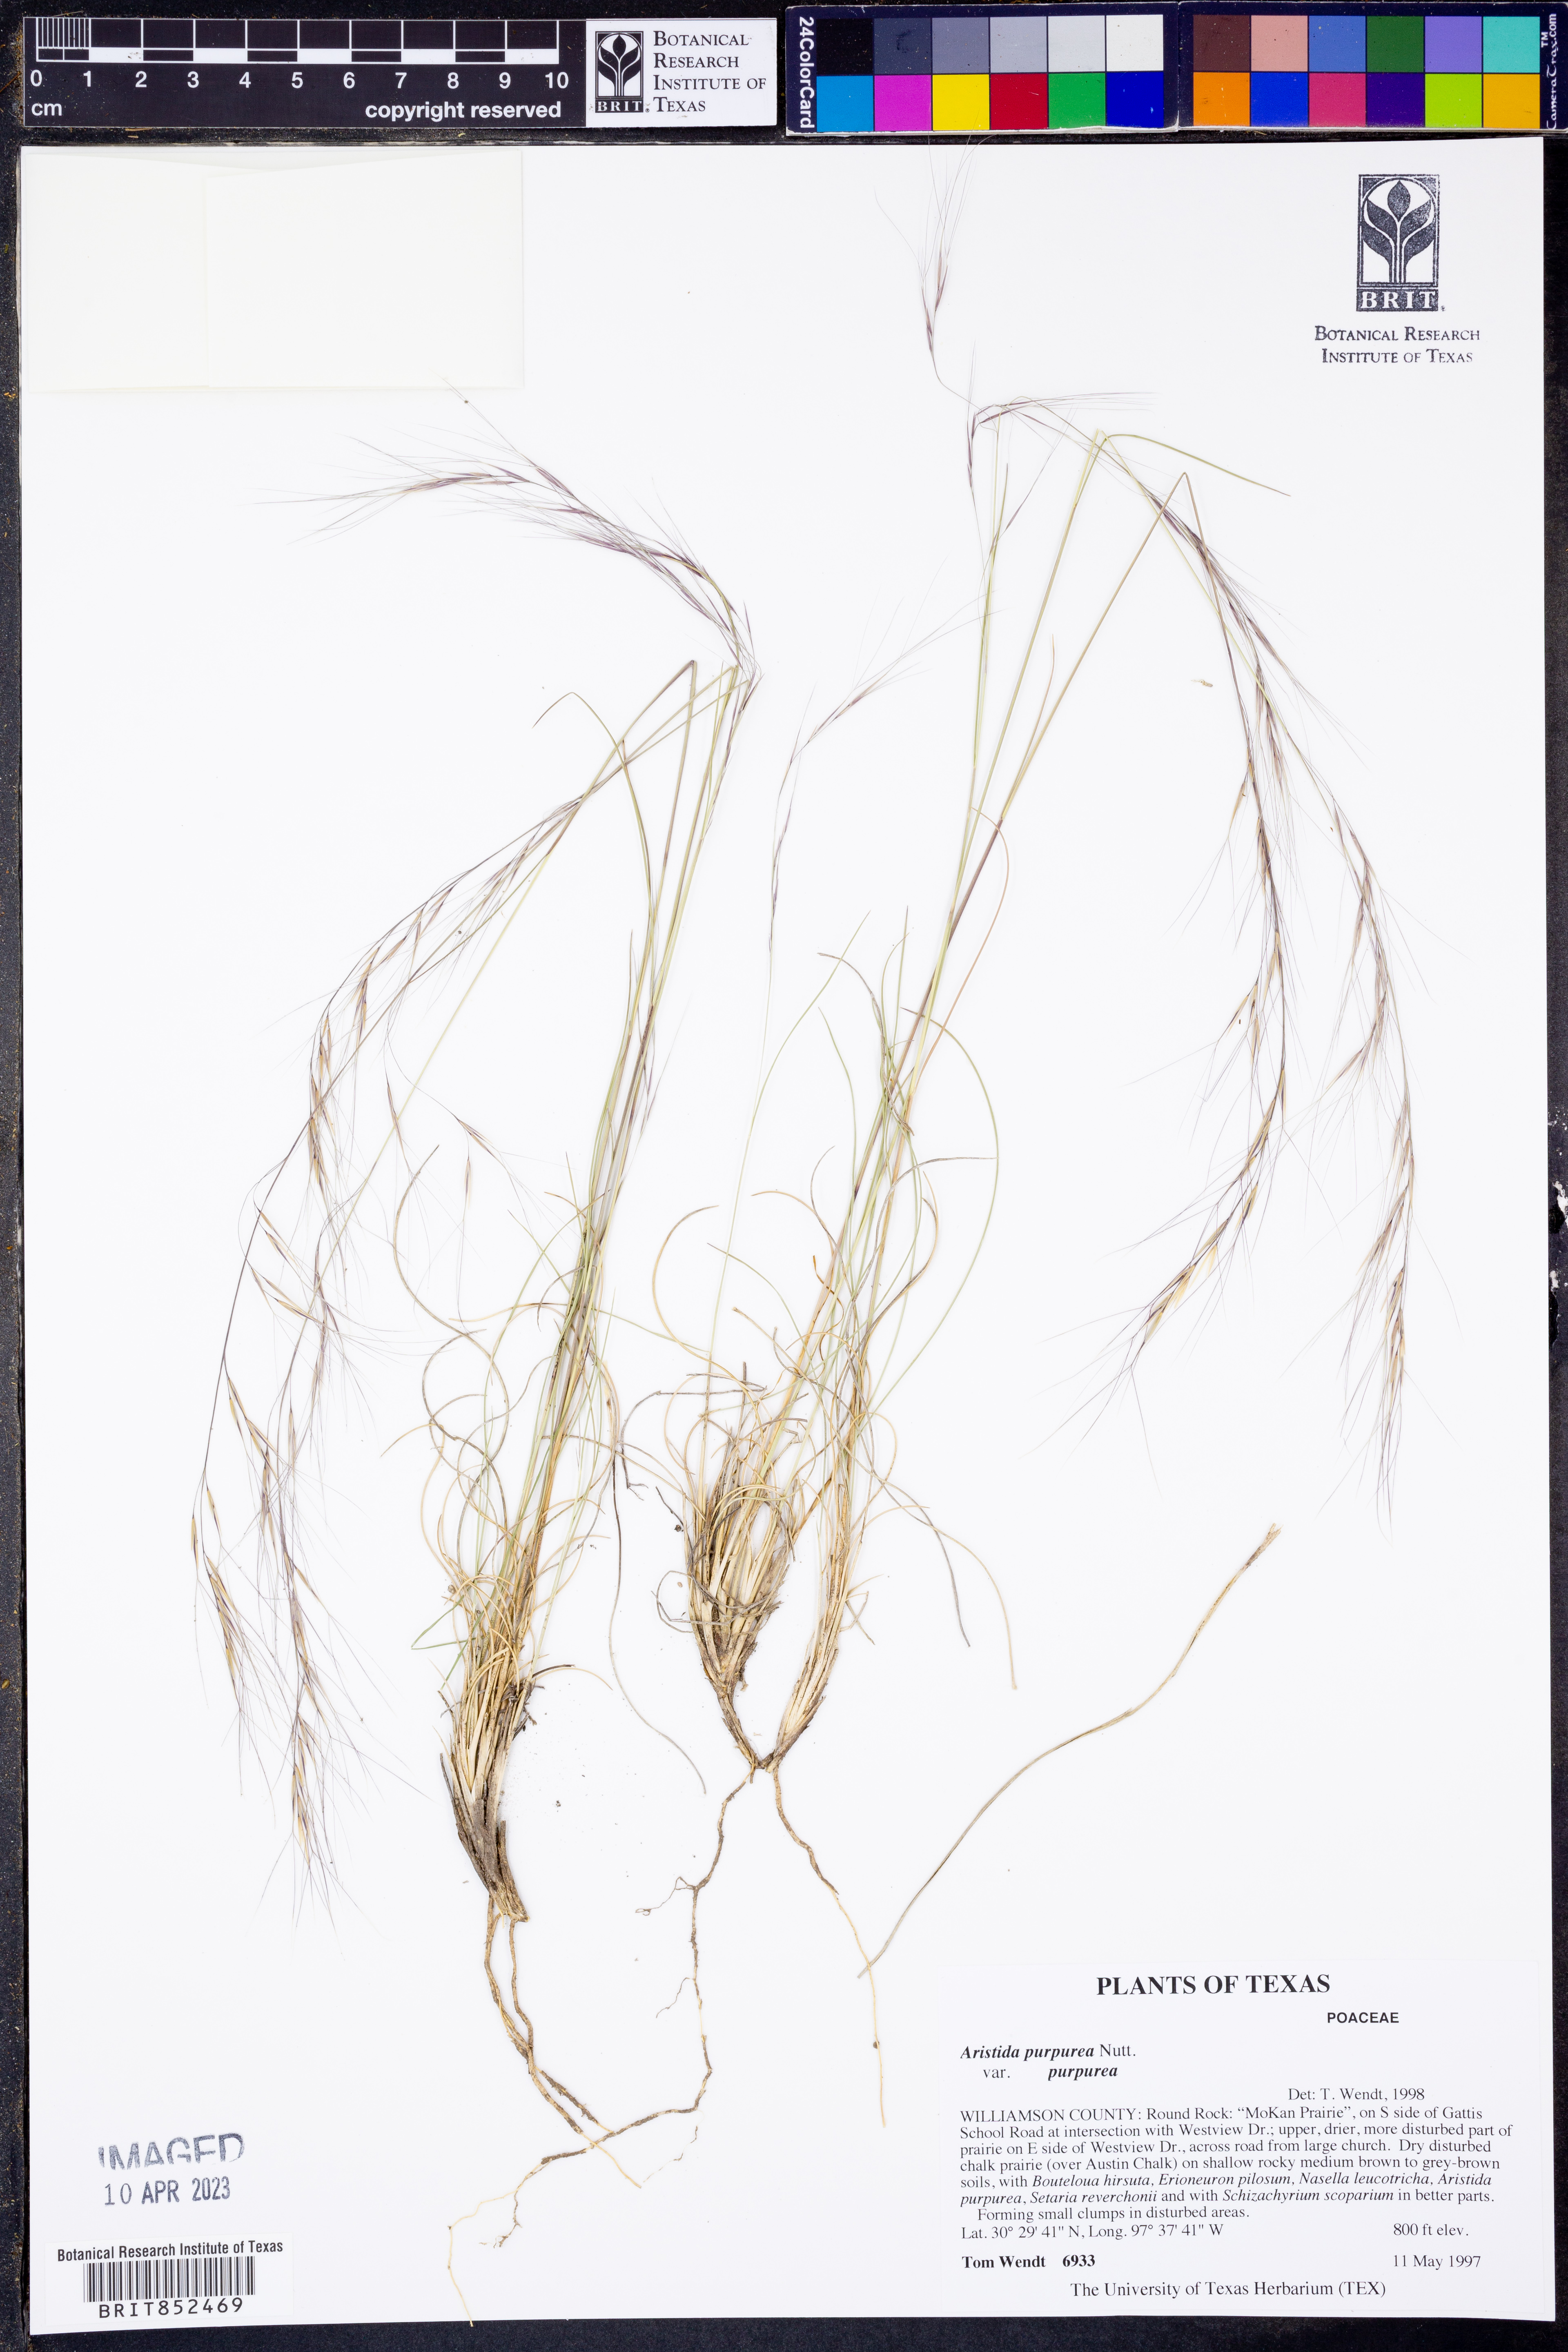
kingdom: Plantae
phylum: Tracheophyta
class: Liliopsida
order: Poales
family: Poaceae
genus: Aristida
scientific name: Aristida purpurea
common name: Purple threeawn
